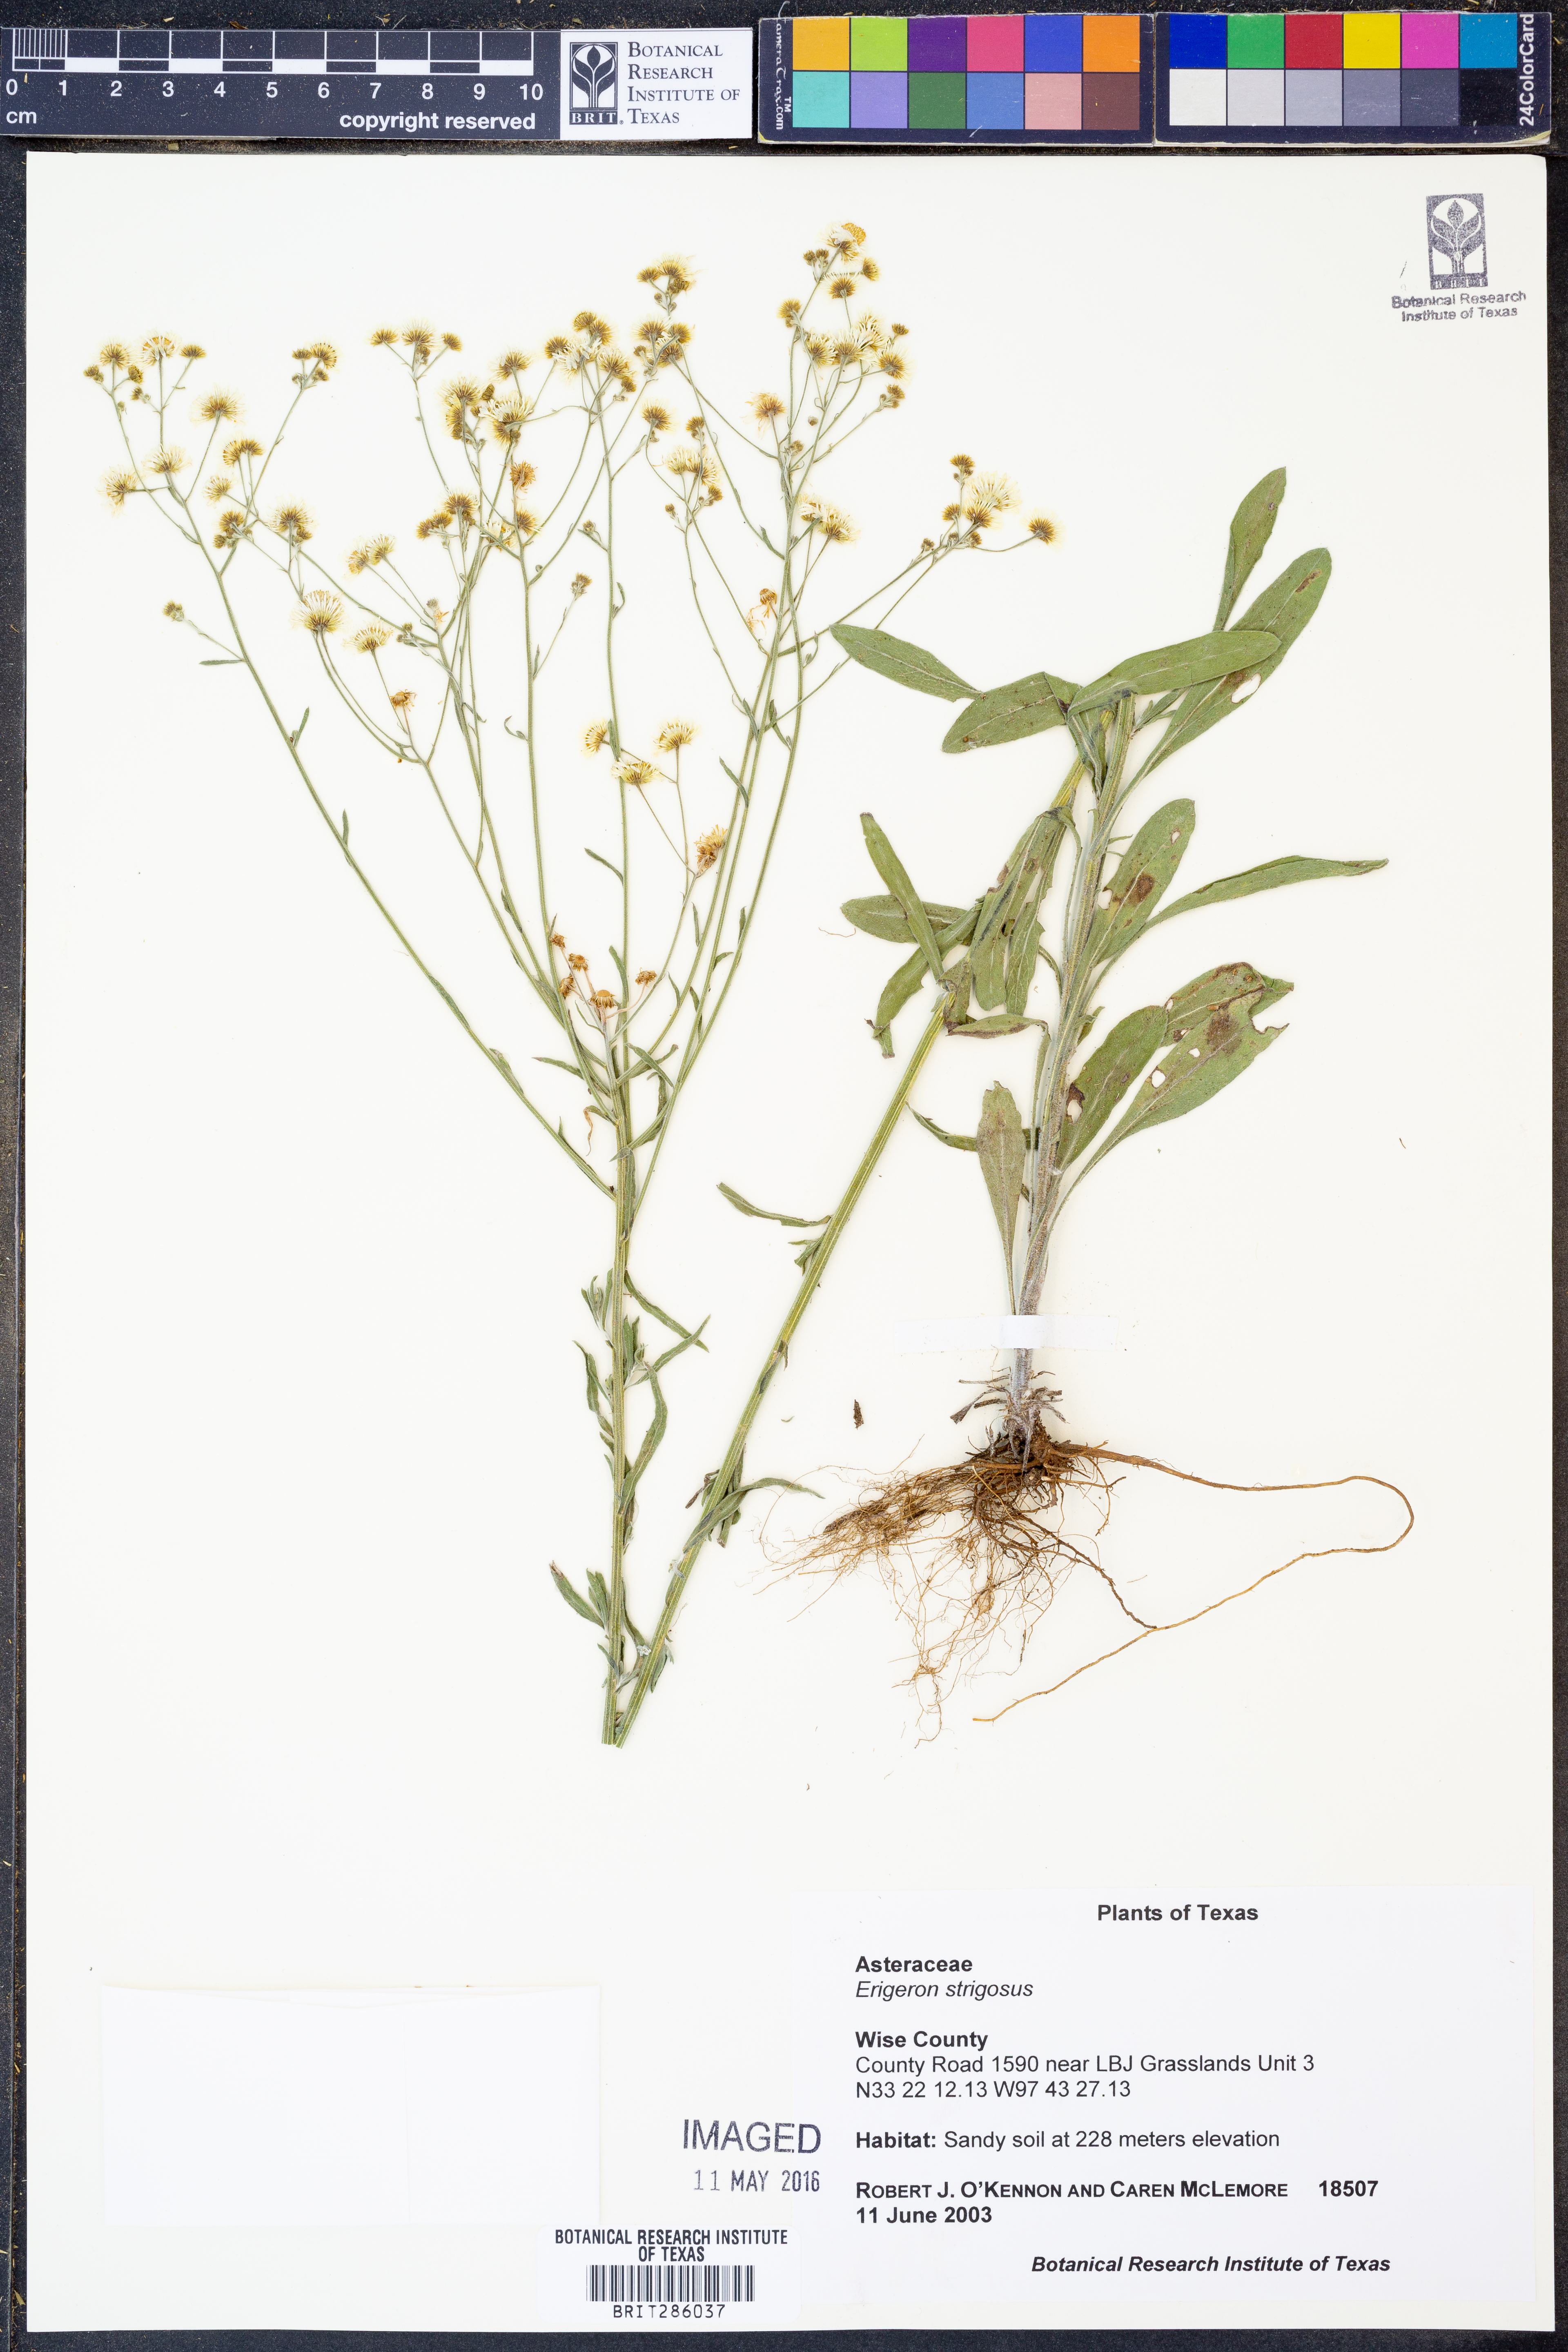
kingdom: Plantae
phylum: Tracheophyta
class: Magnoliopsida
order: Asterales
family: Asteraceae
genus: Erigeron
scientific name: Erigeron strigosus
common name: Common eastern fleabane
